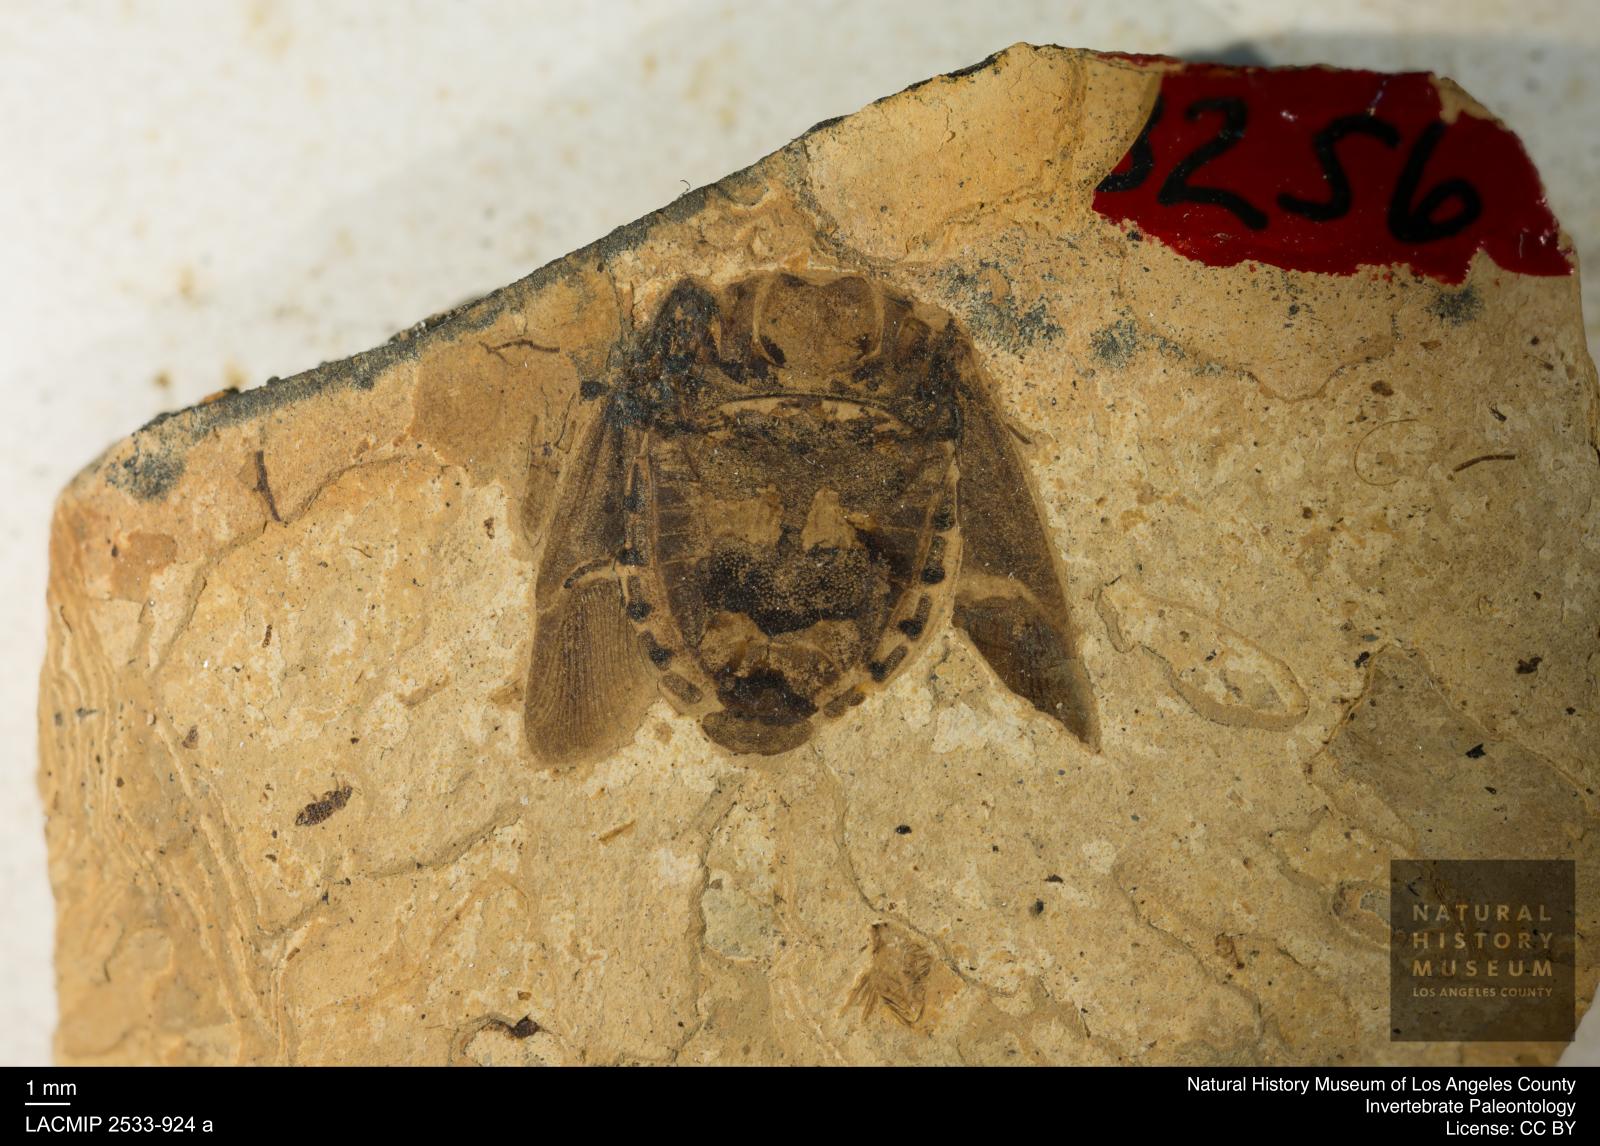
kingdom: Animalia
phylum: Arthropoda
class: Insecta
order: Hemiptera
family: Blissidae
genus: Ischnodemus
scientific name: Ischnodemus rottensis
